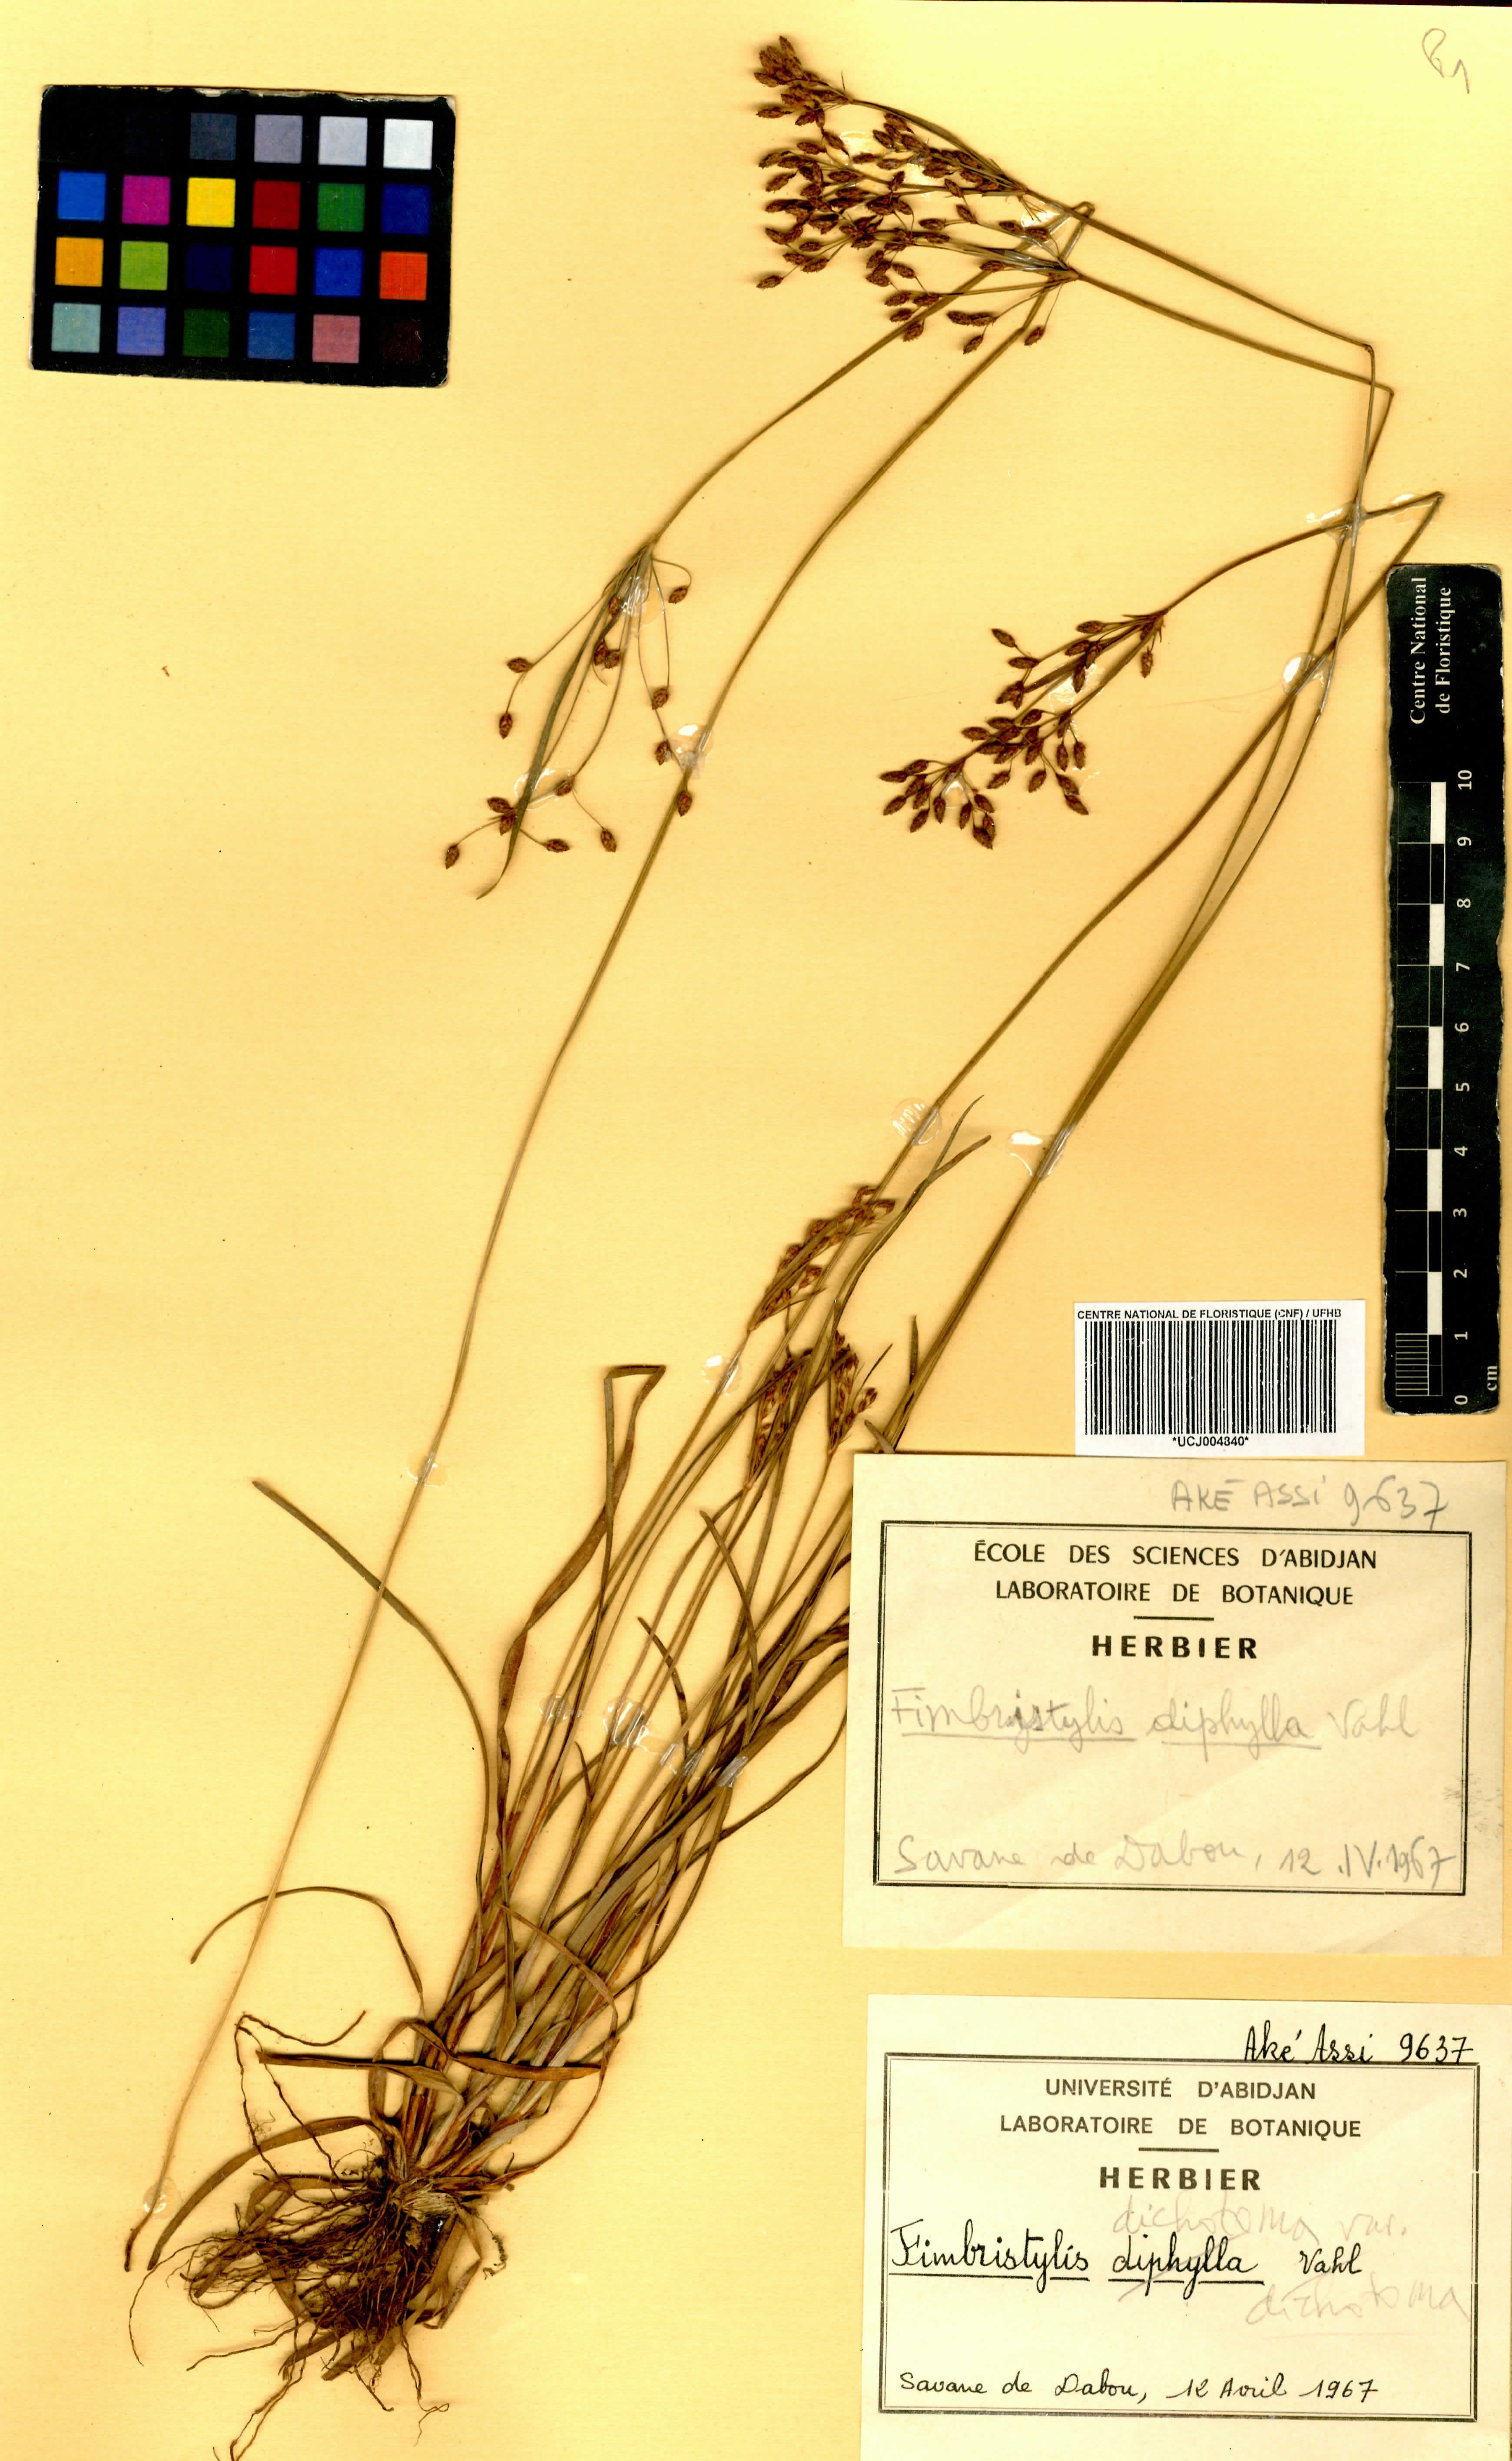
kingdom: Plantae
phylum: Tracheophyta
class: Liliopsida
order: Poales
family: Cyperaceae
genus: Fimbristylis
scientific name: Fimbristylis dichotoma
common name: Forked fimbry
